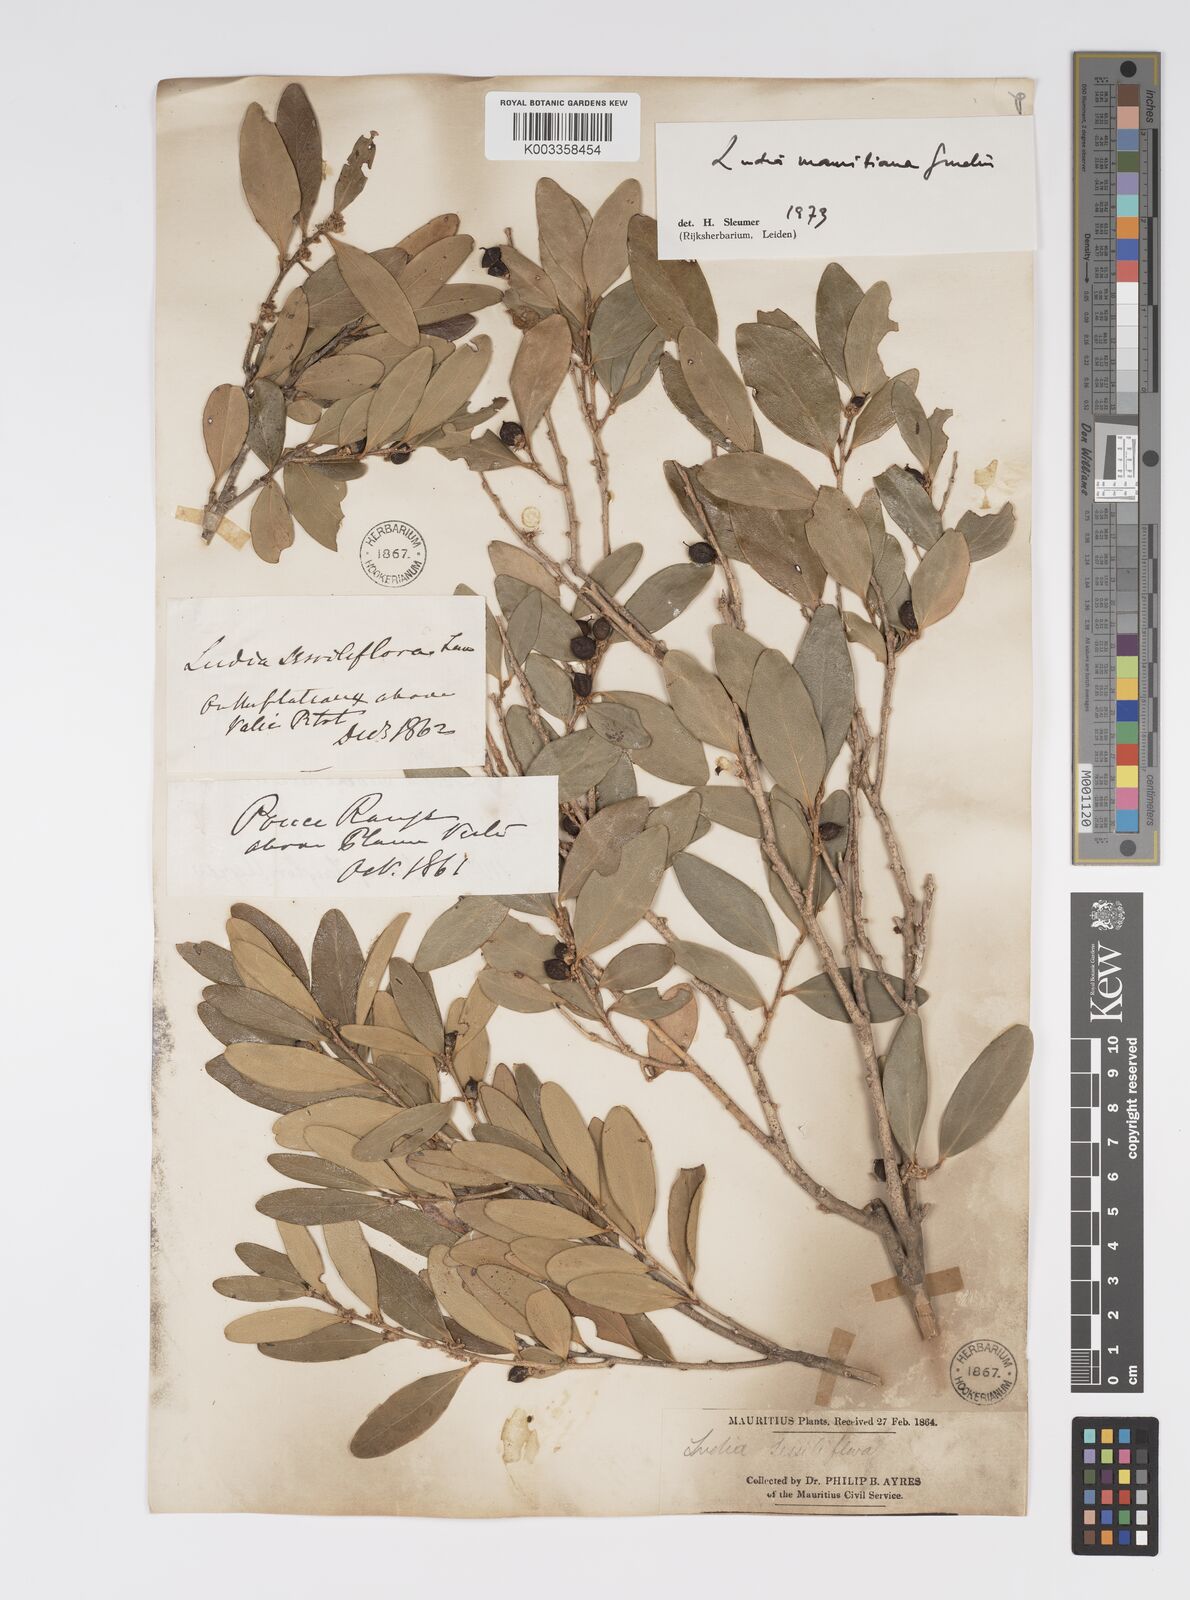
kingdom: Plantae
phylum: Tracheophyta
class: Magnoliopsida
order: Malpighiales
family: Salicaceae
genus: Ludia
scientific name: Ludia mauritiana
